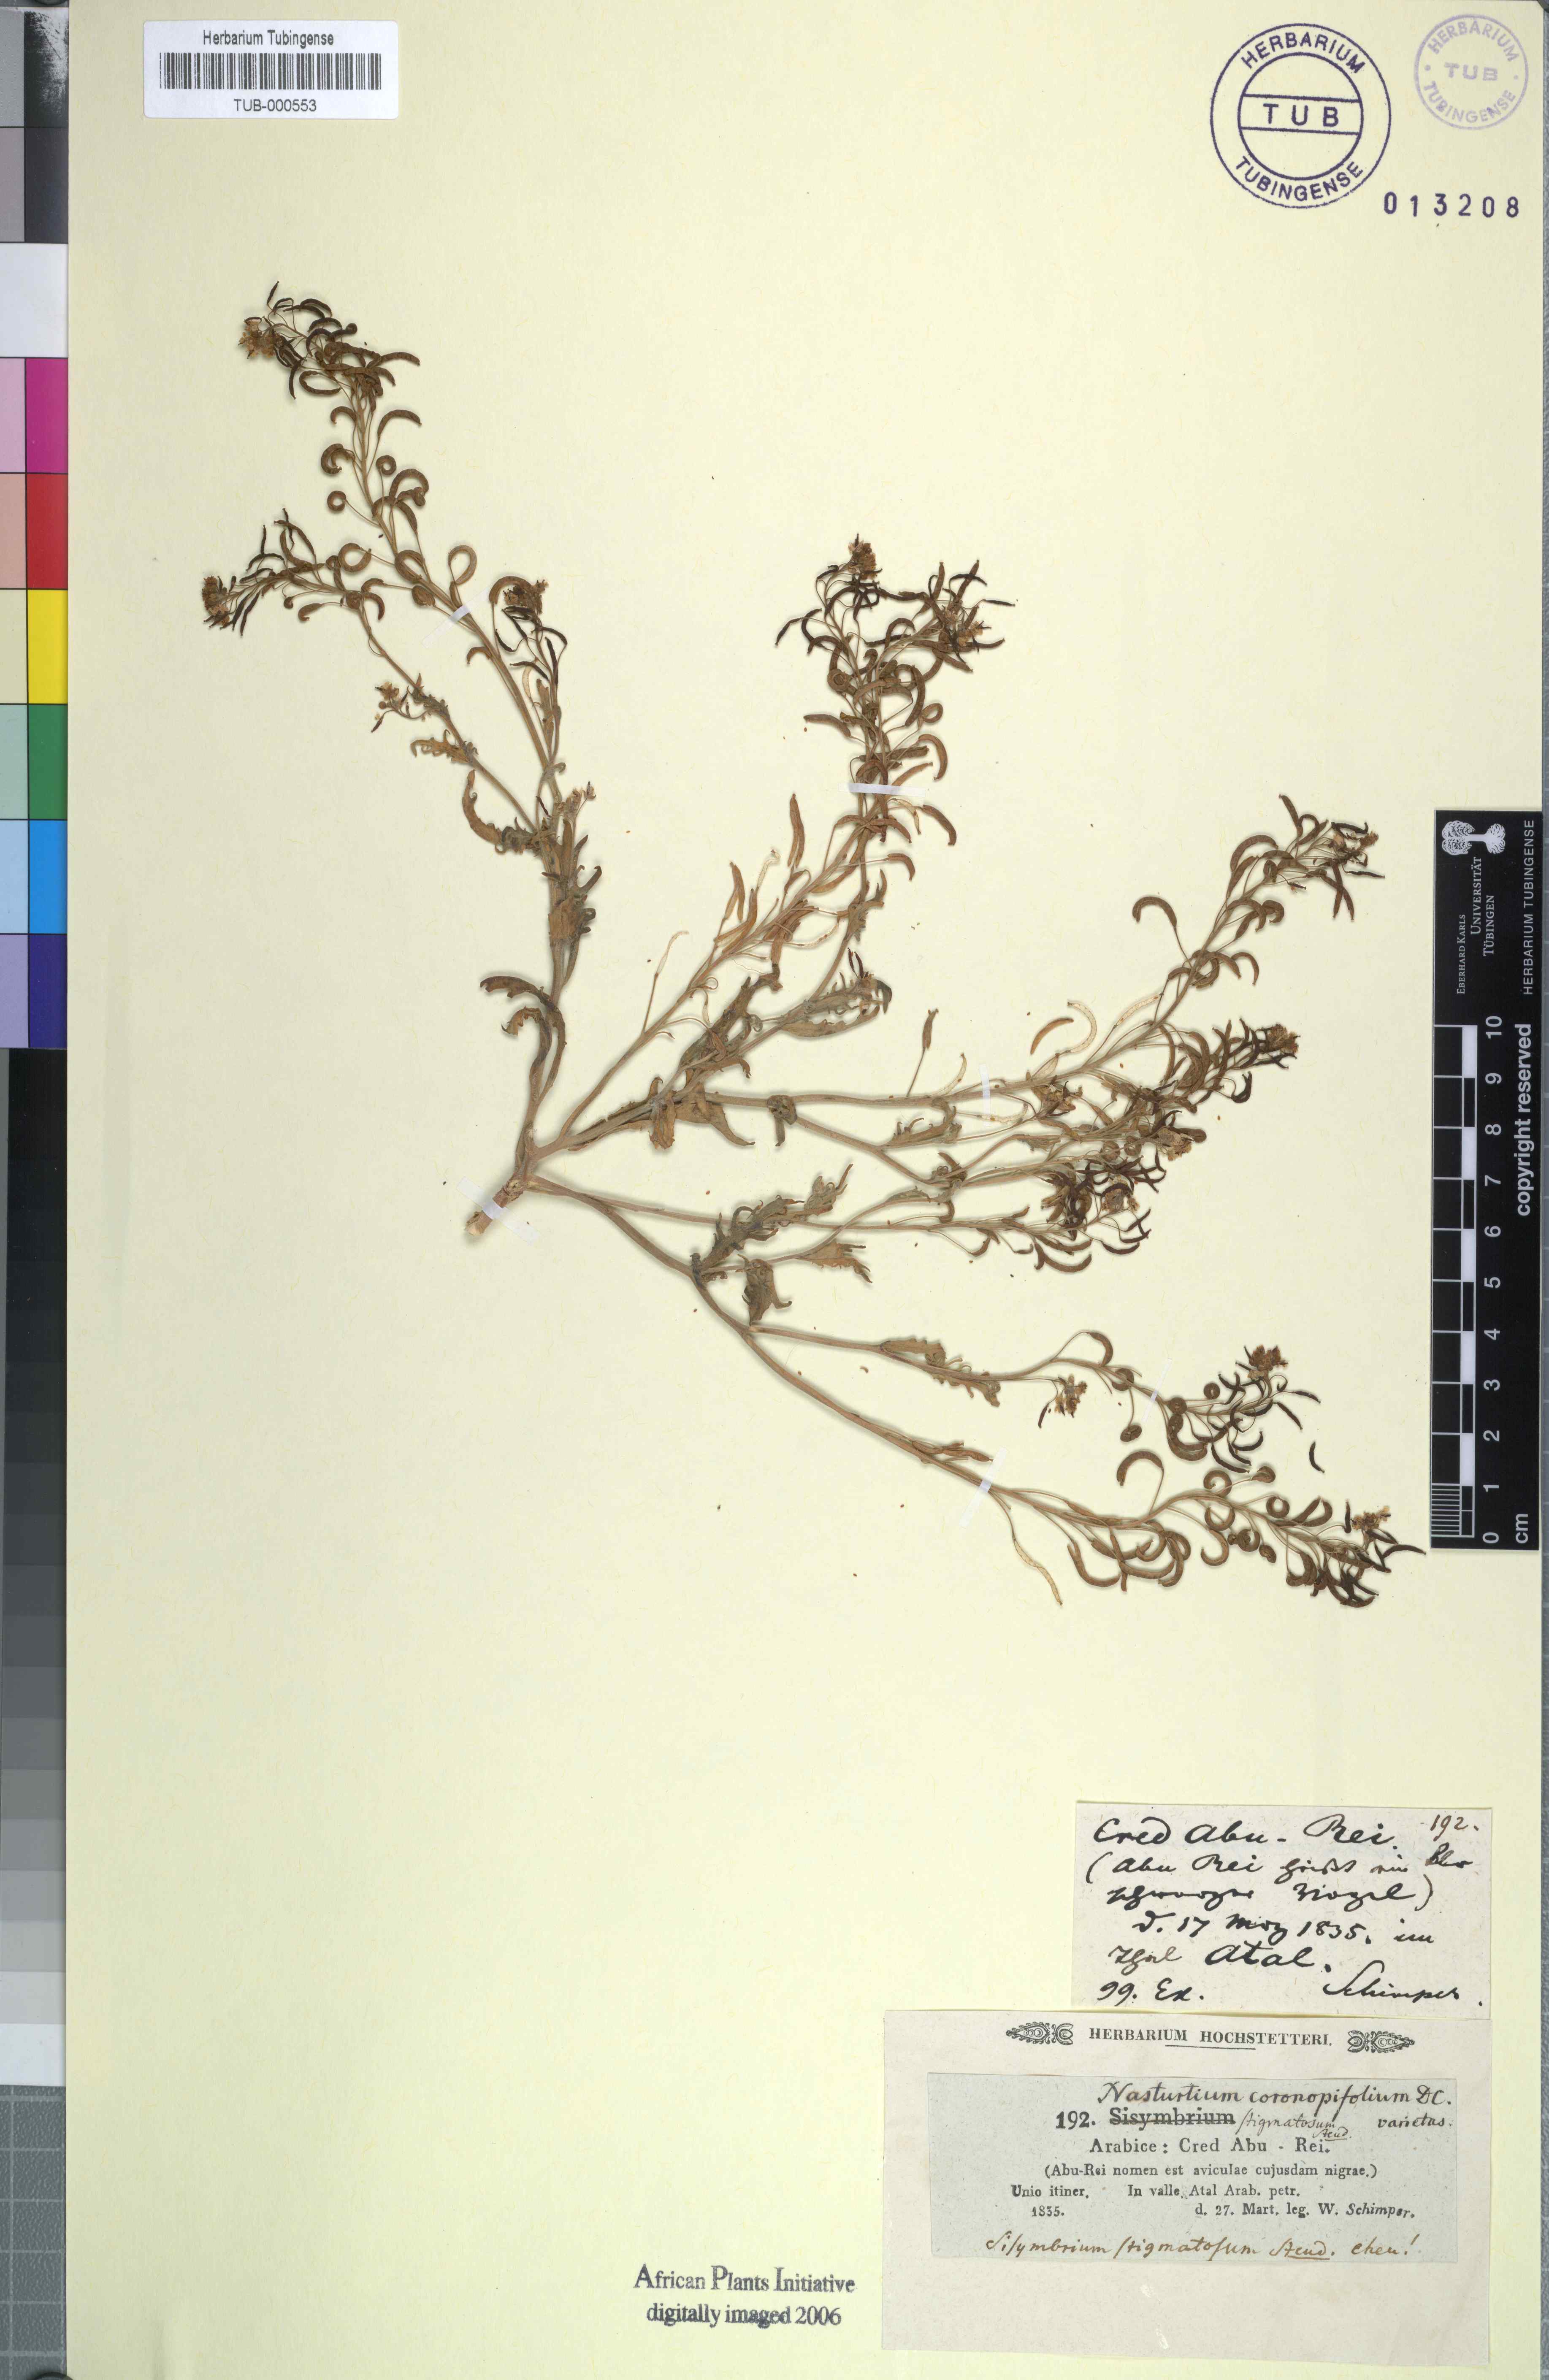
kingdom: Plantae
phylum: Tracheophyta
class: Magnoliopsida
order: Brassicales
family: Brassicaceae
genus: Nasturtiopsis
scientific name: Nasturtiopsis coronopifolia
